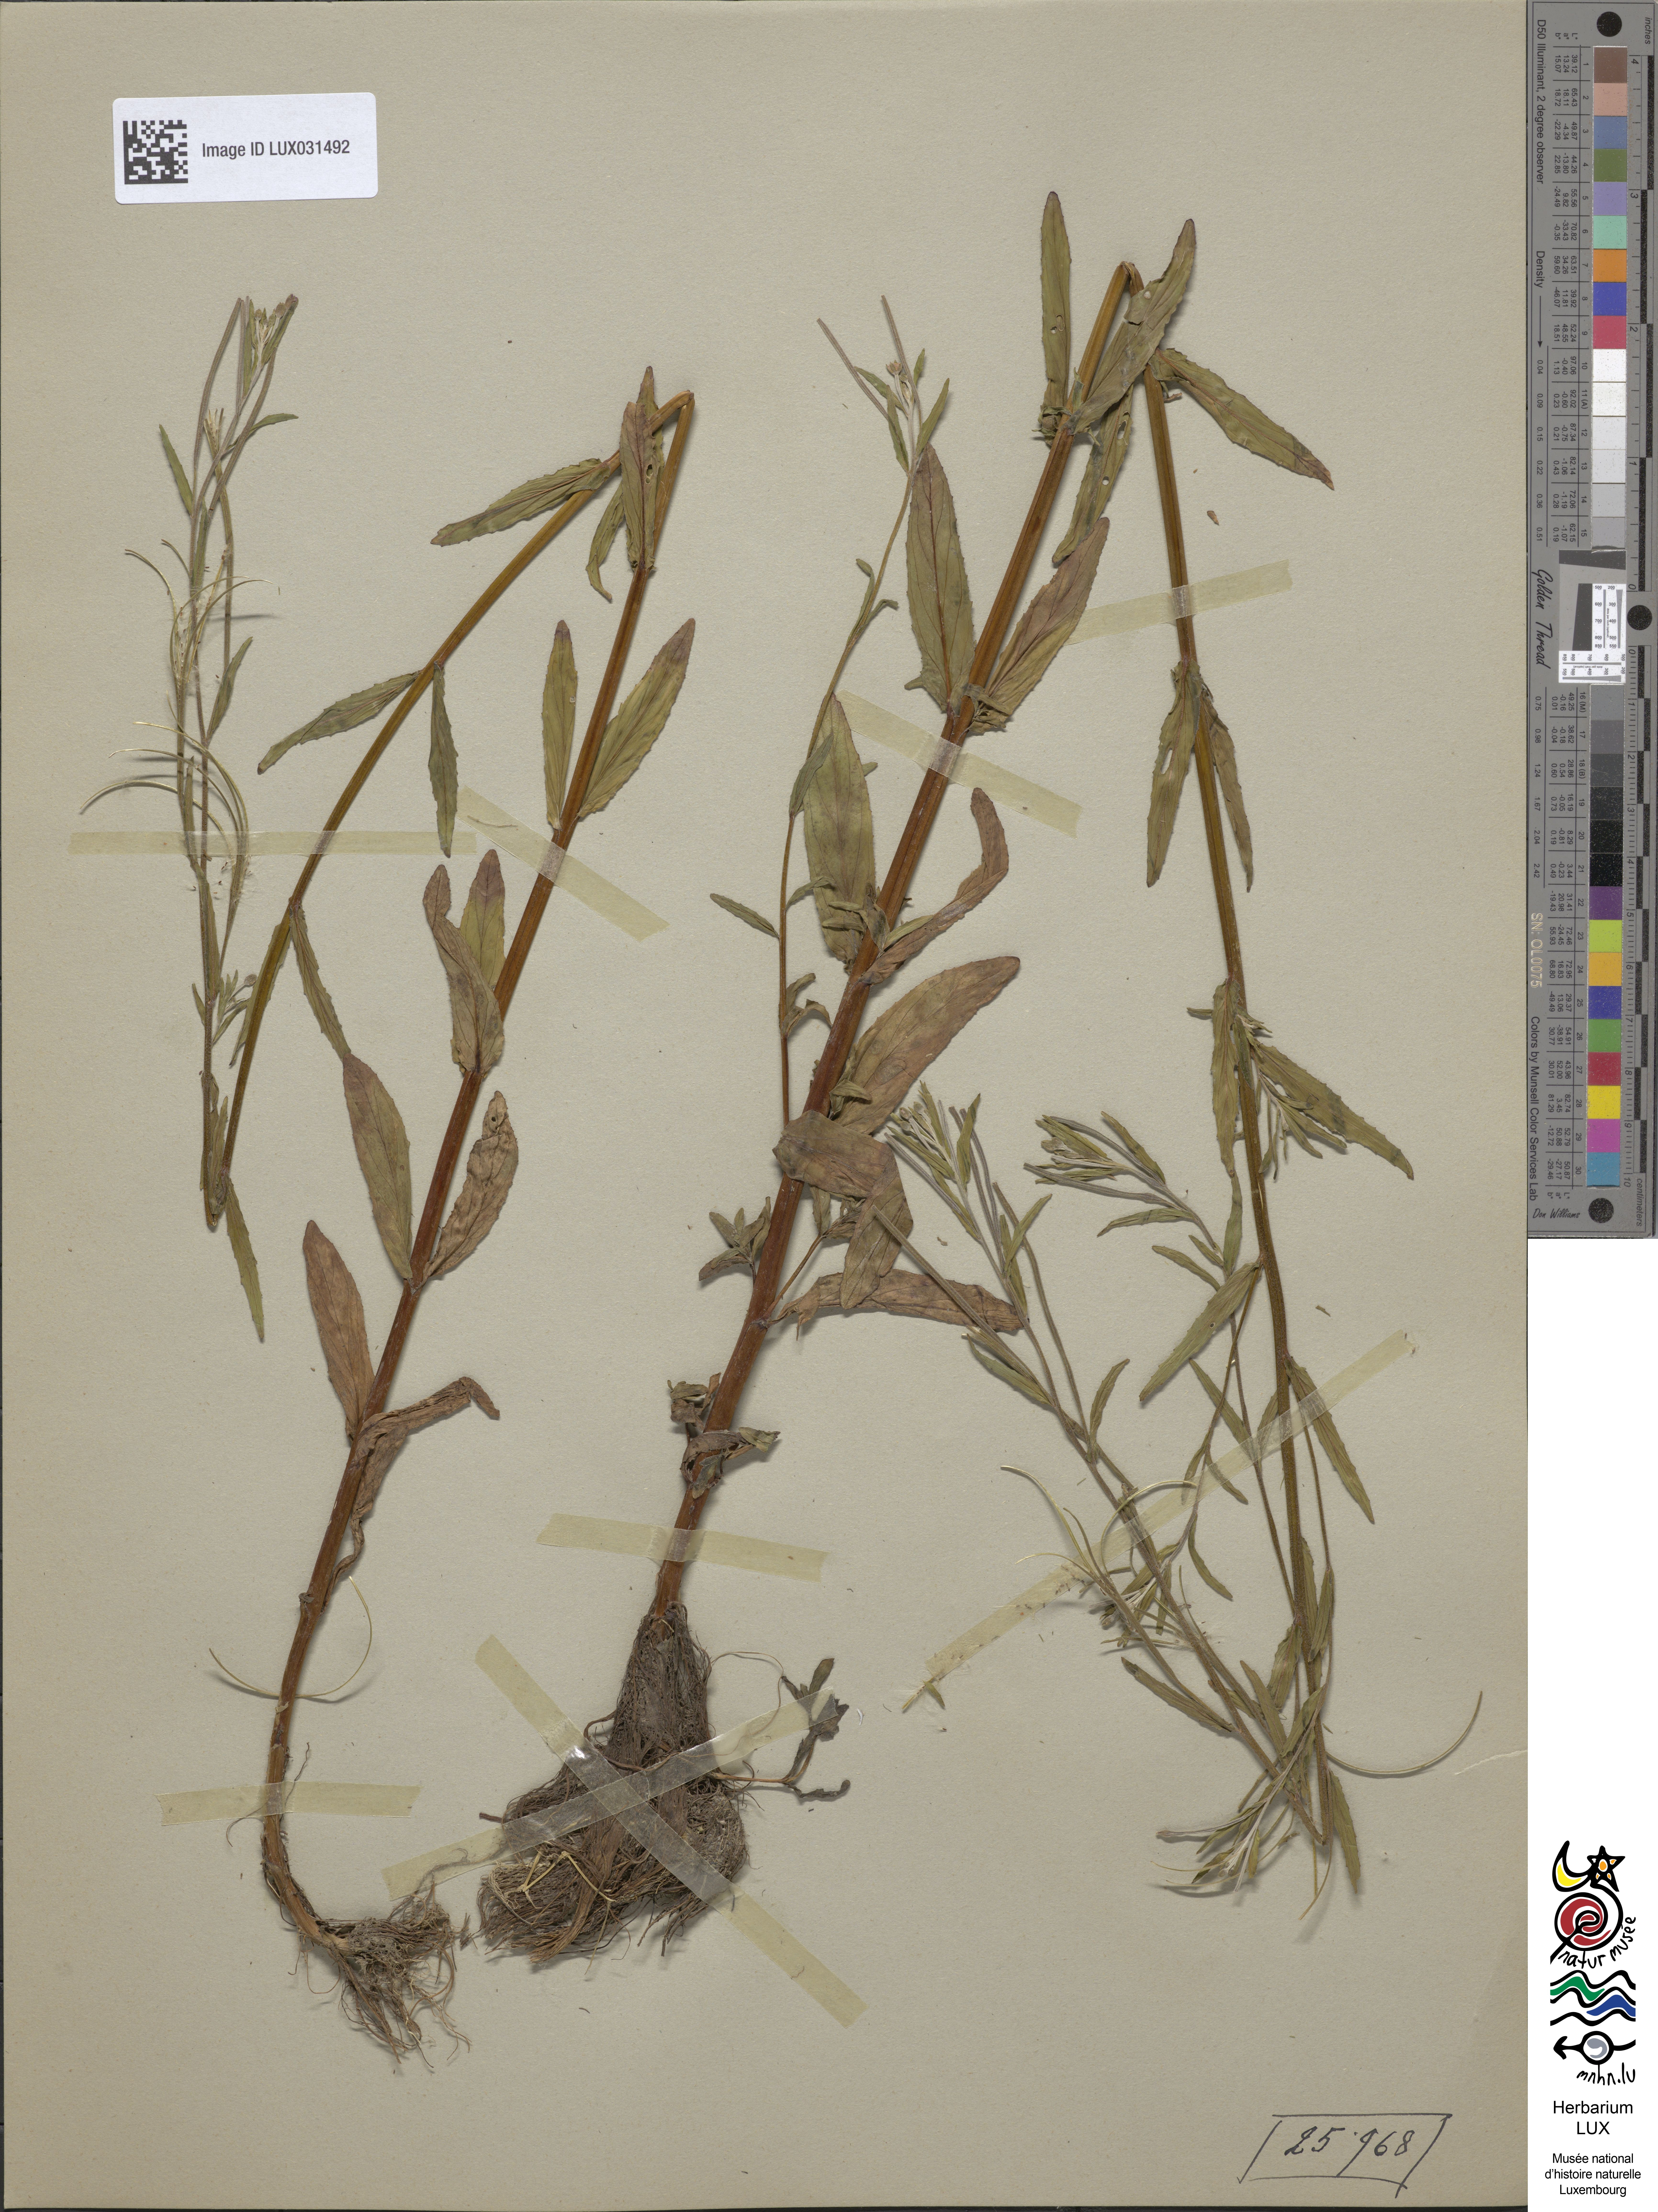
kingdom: Plantae
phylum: Tracheophyta
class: Magnoliopsida
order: Myrtales
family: Onagraceae
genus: Epilobium
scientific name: Epilobium obscurum
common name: Short-fruited willowherb
